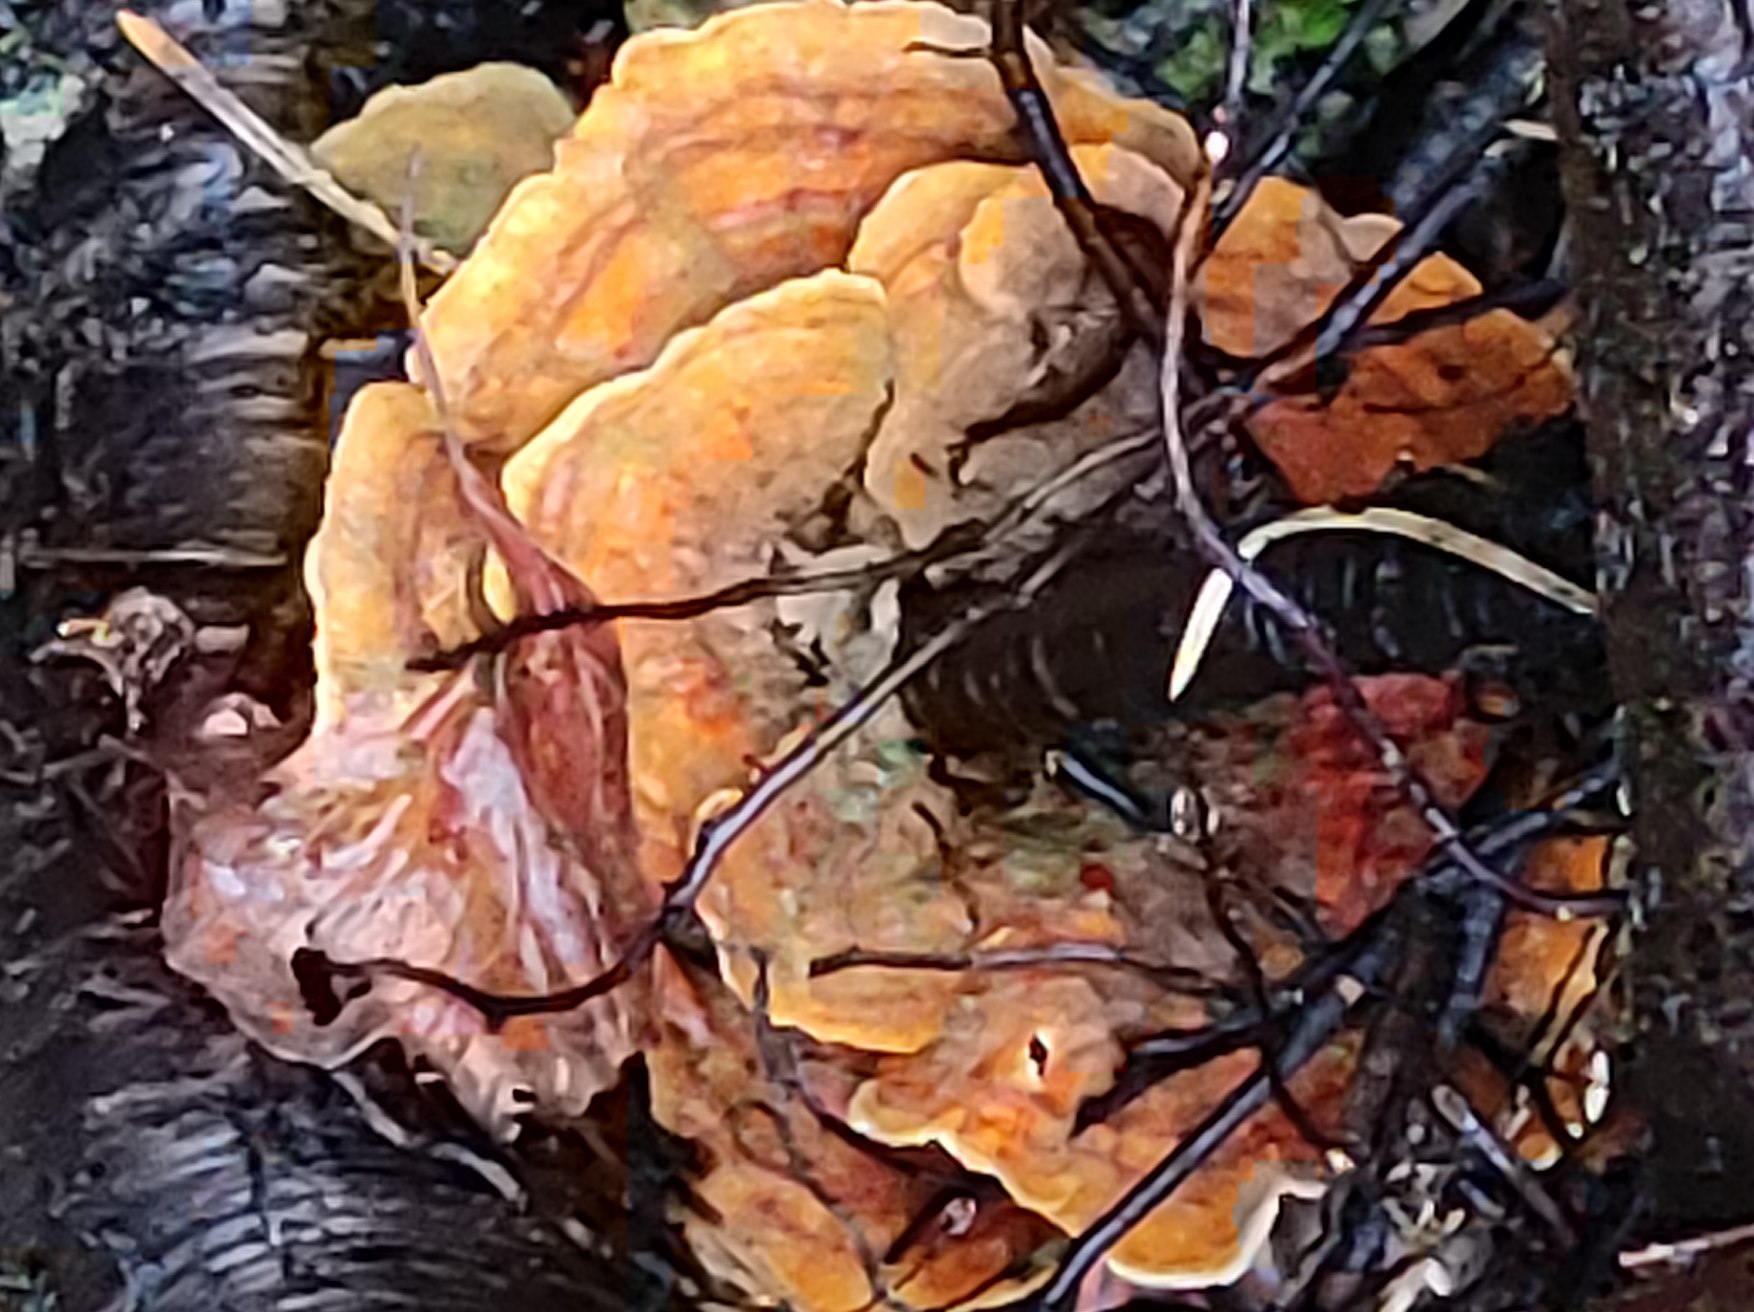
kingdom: Fungi
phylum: Basidiomycota
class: Agaricomycetes
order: Polyporales
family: Polyporaceae
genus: Trametes
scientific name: Trametes hirsuta
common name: Håret læderporesvamp
